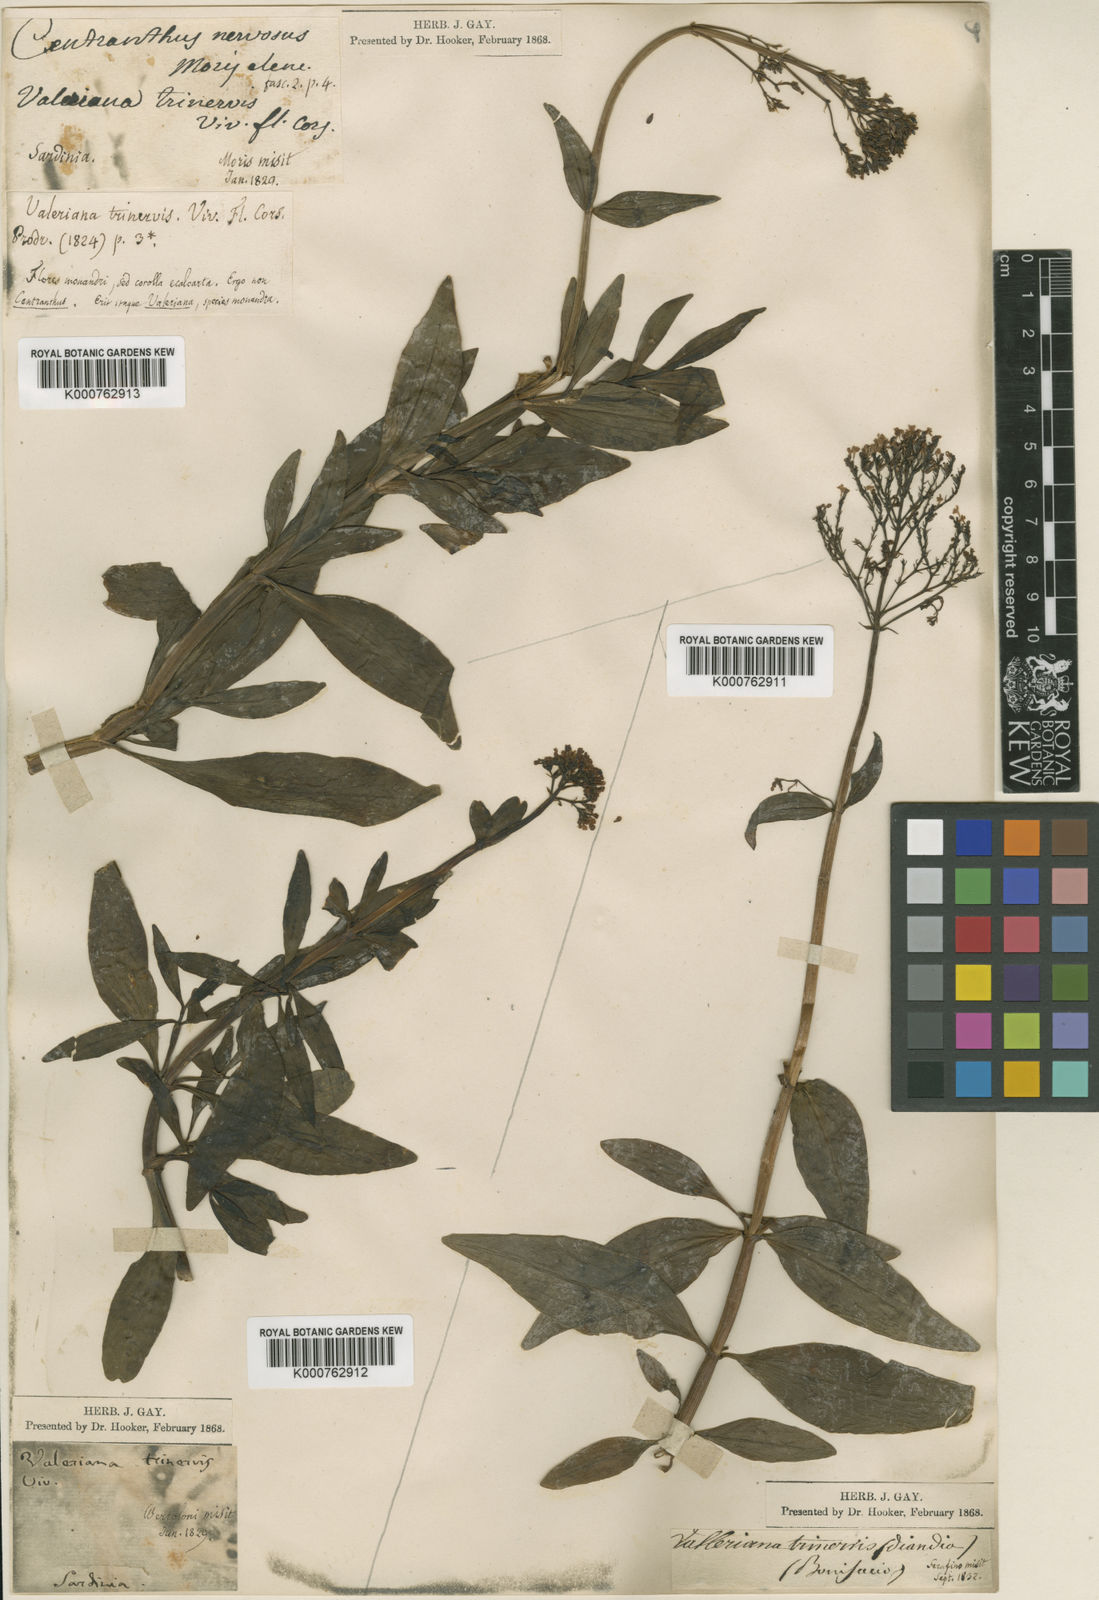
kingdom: Plantae
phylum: Tracheophyta
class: Magnoliopsida
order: Dipsacales
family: Caprifoliaceae
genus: Centranthus
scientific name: Centranthus
